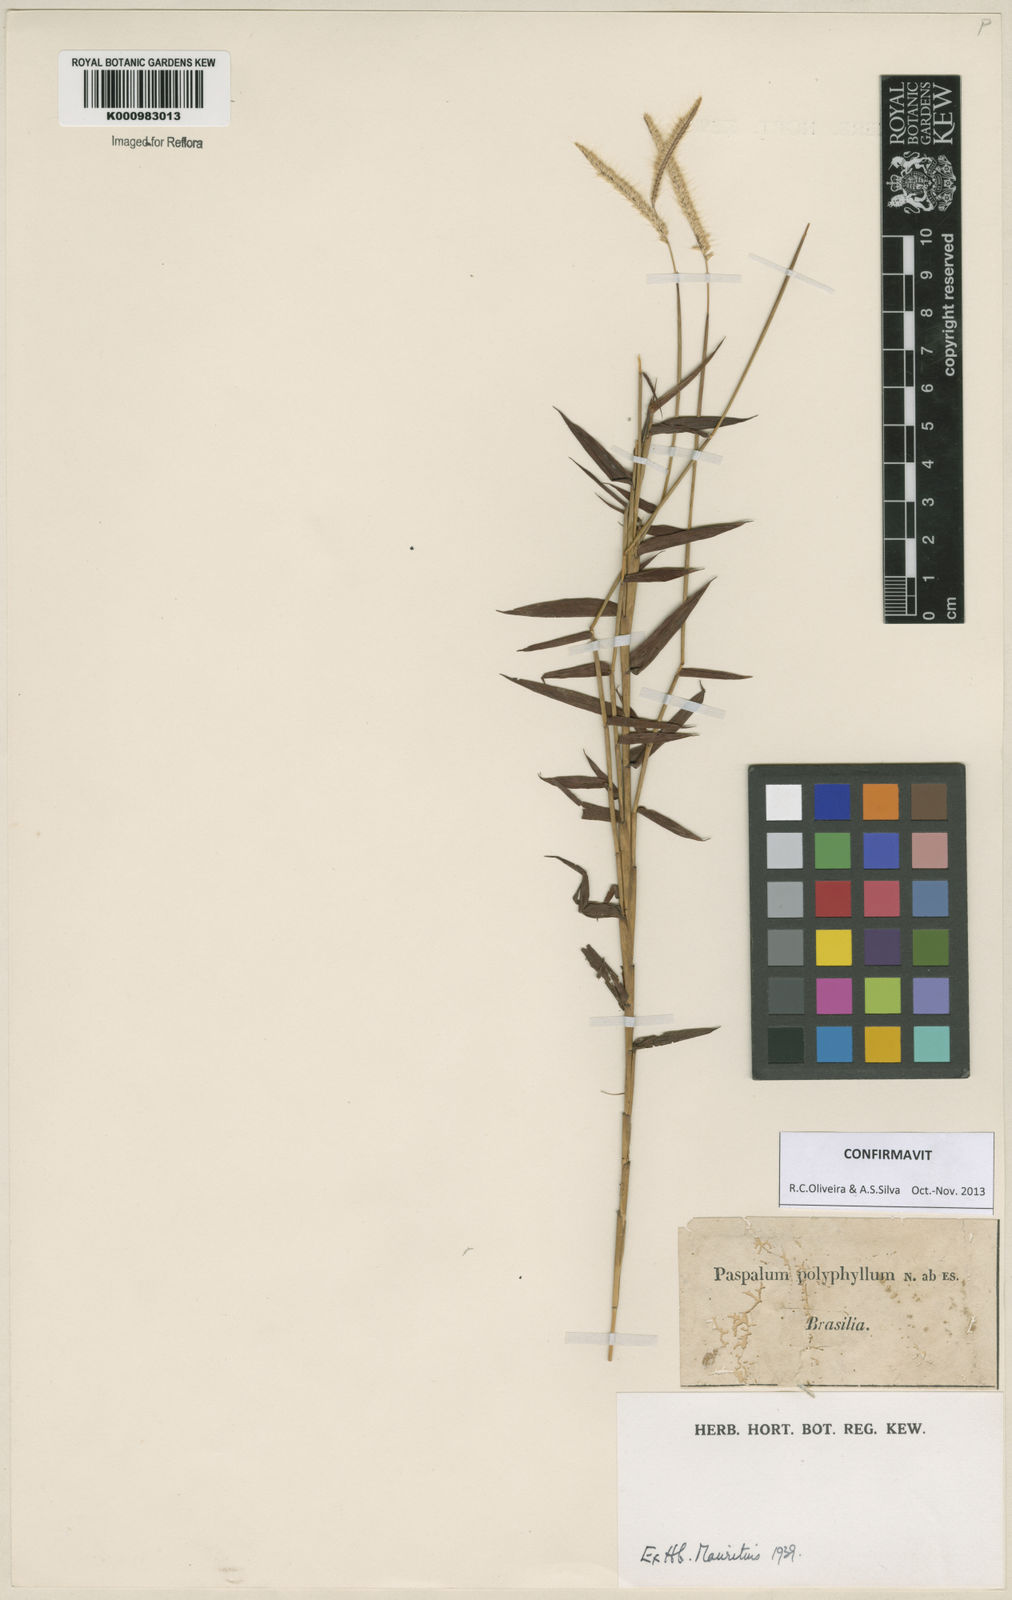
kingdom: Plantae
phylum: Tracheophyta
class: Liliopsida
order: Poales
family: Poaceae
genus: Paspalum
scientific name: Paspalum
